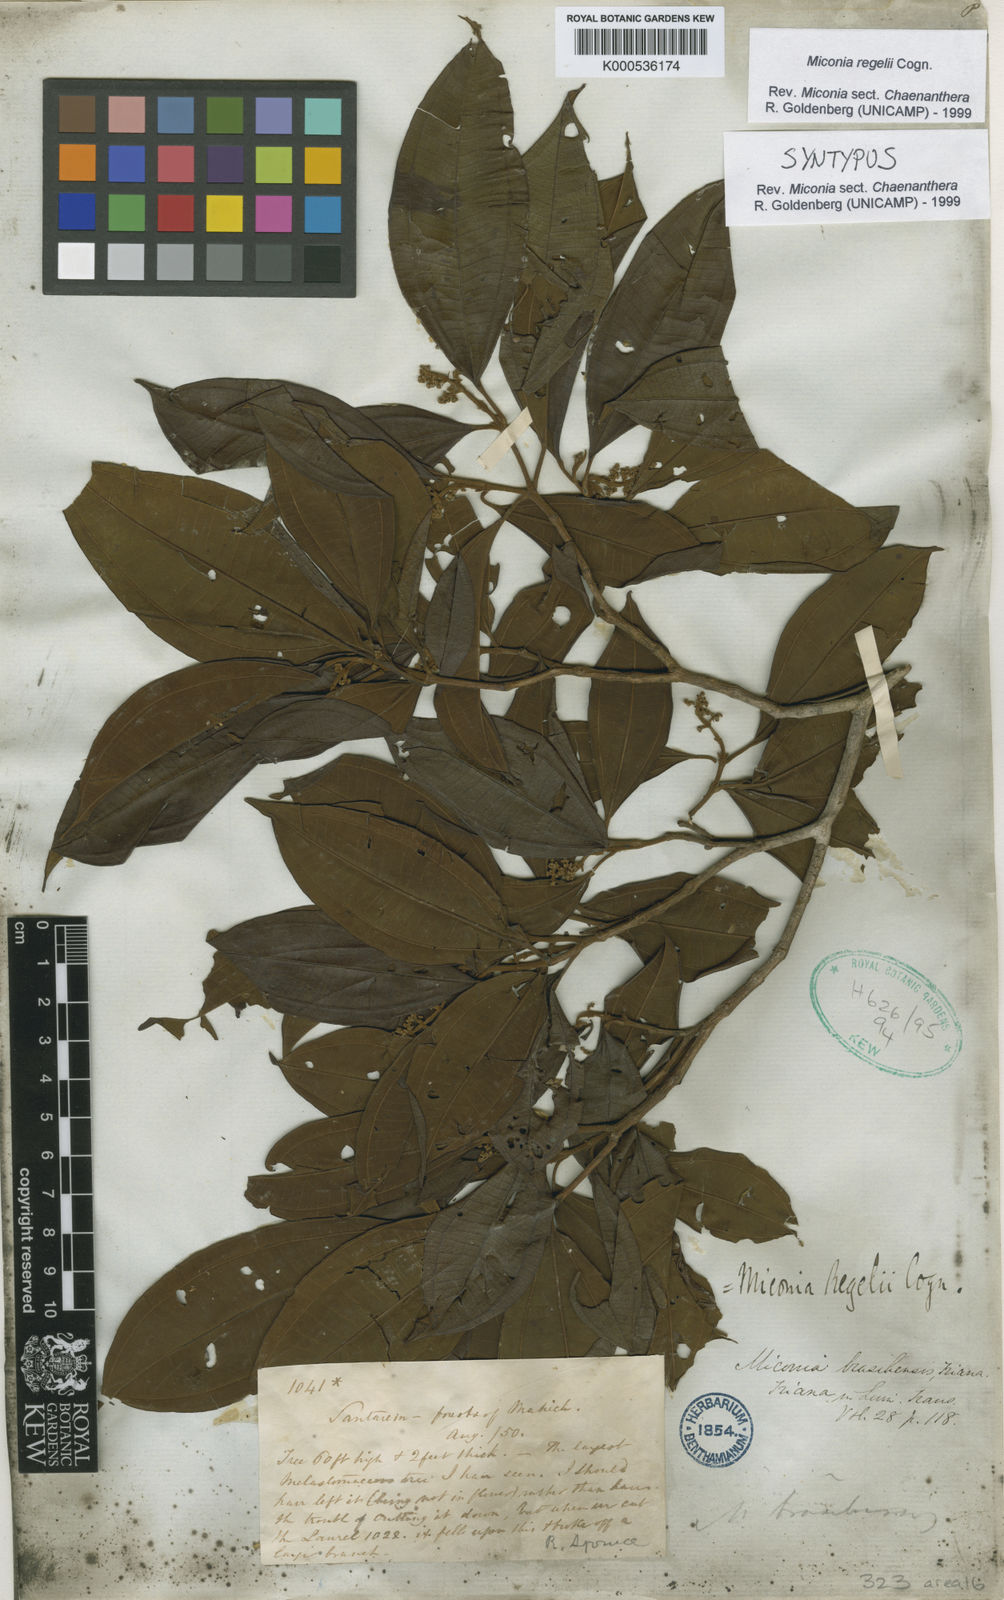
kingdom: Plantae
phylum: Tracheophyta
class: Magnoliopsida
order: Myrtales
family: Melastomataceae
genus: Miconia
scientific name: Miconia regelii
